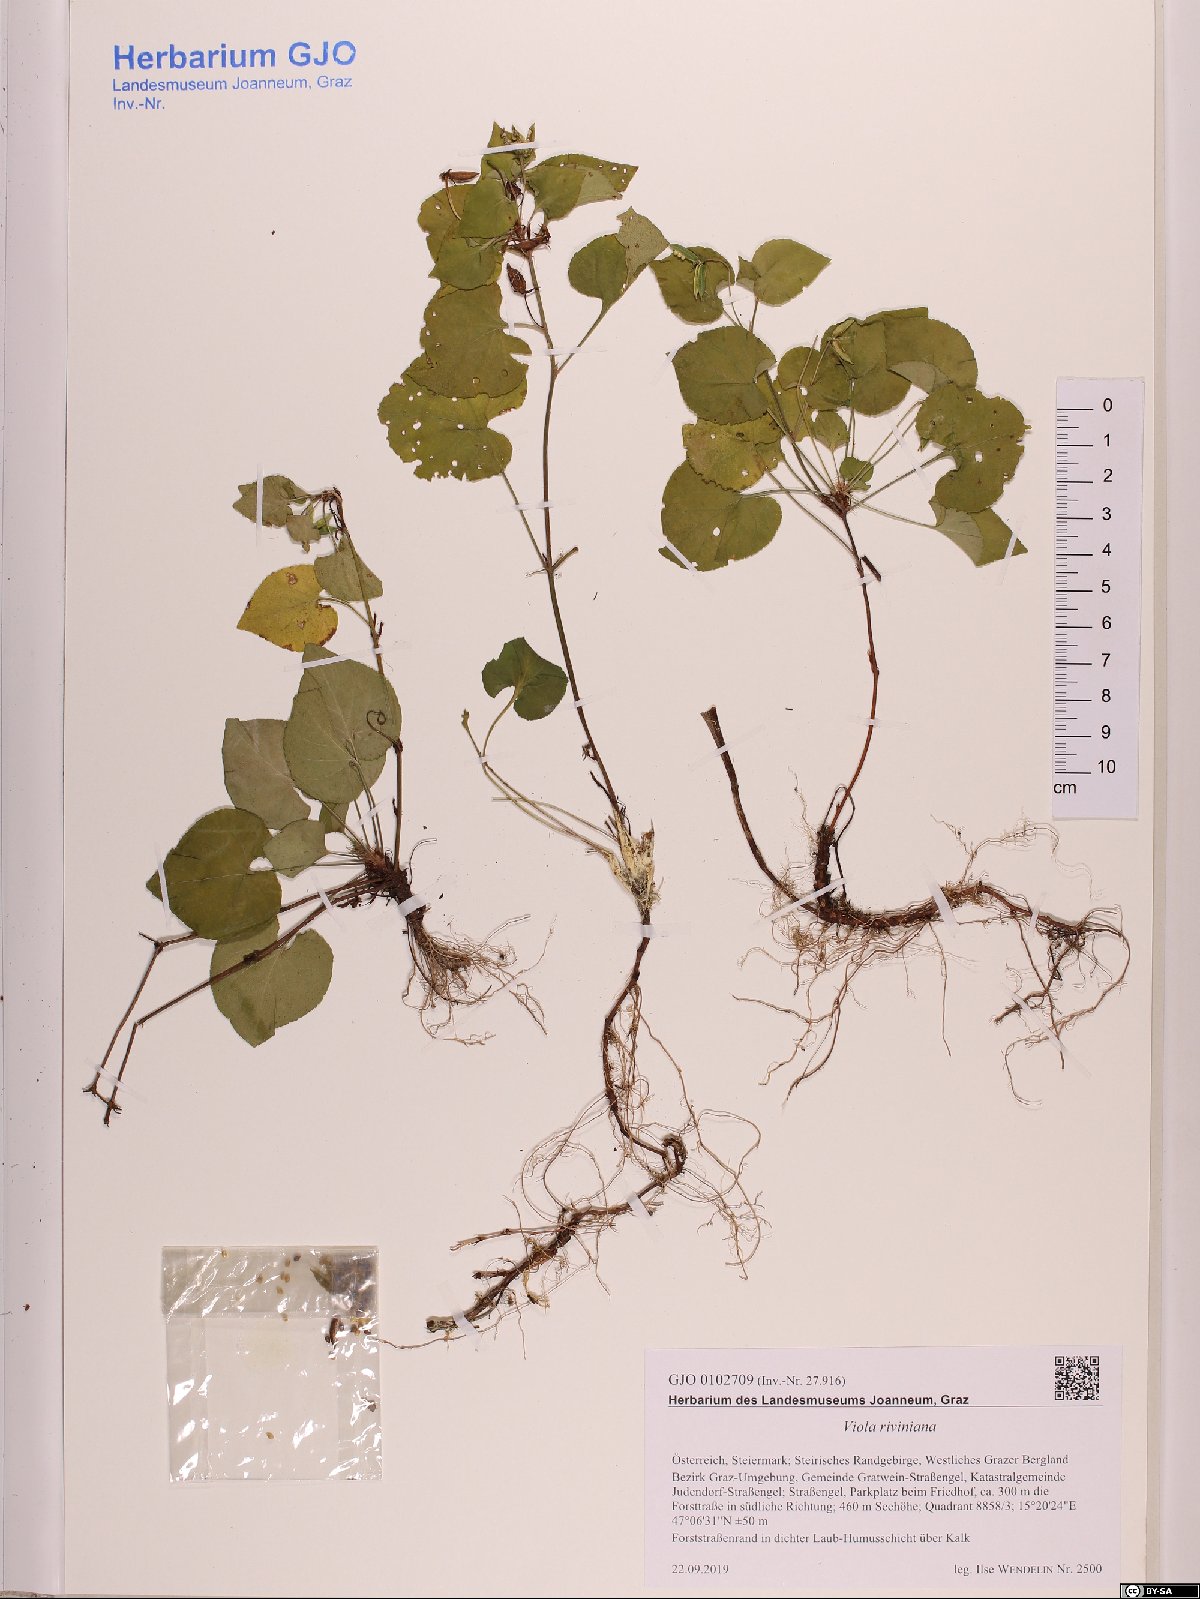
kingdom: Plantae
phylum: Tracheophyta
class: Magnoliopsida
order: Malpighiales
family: Violaceae
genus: Viola
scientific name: Viola riviniana
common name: Common dog-violet
